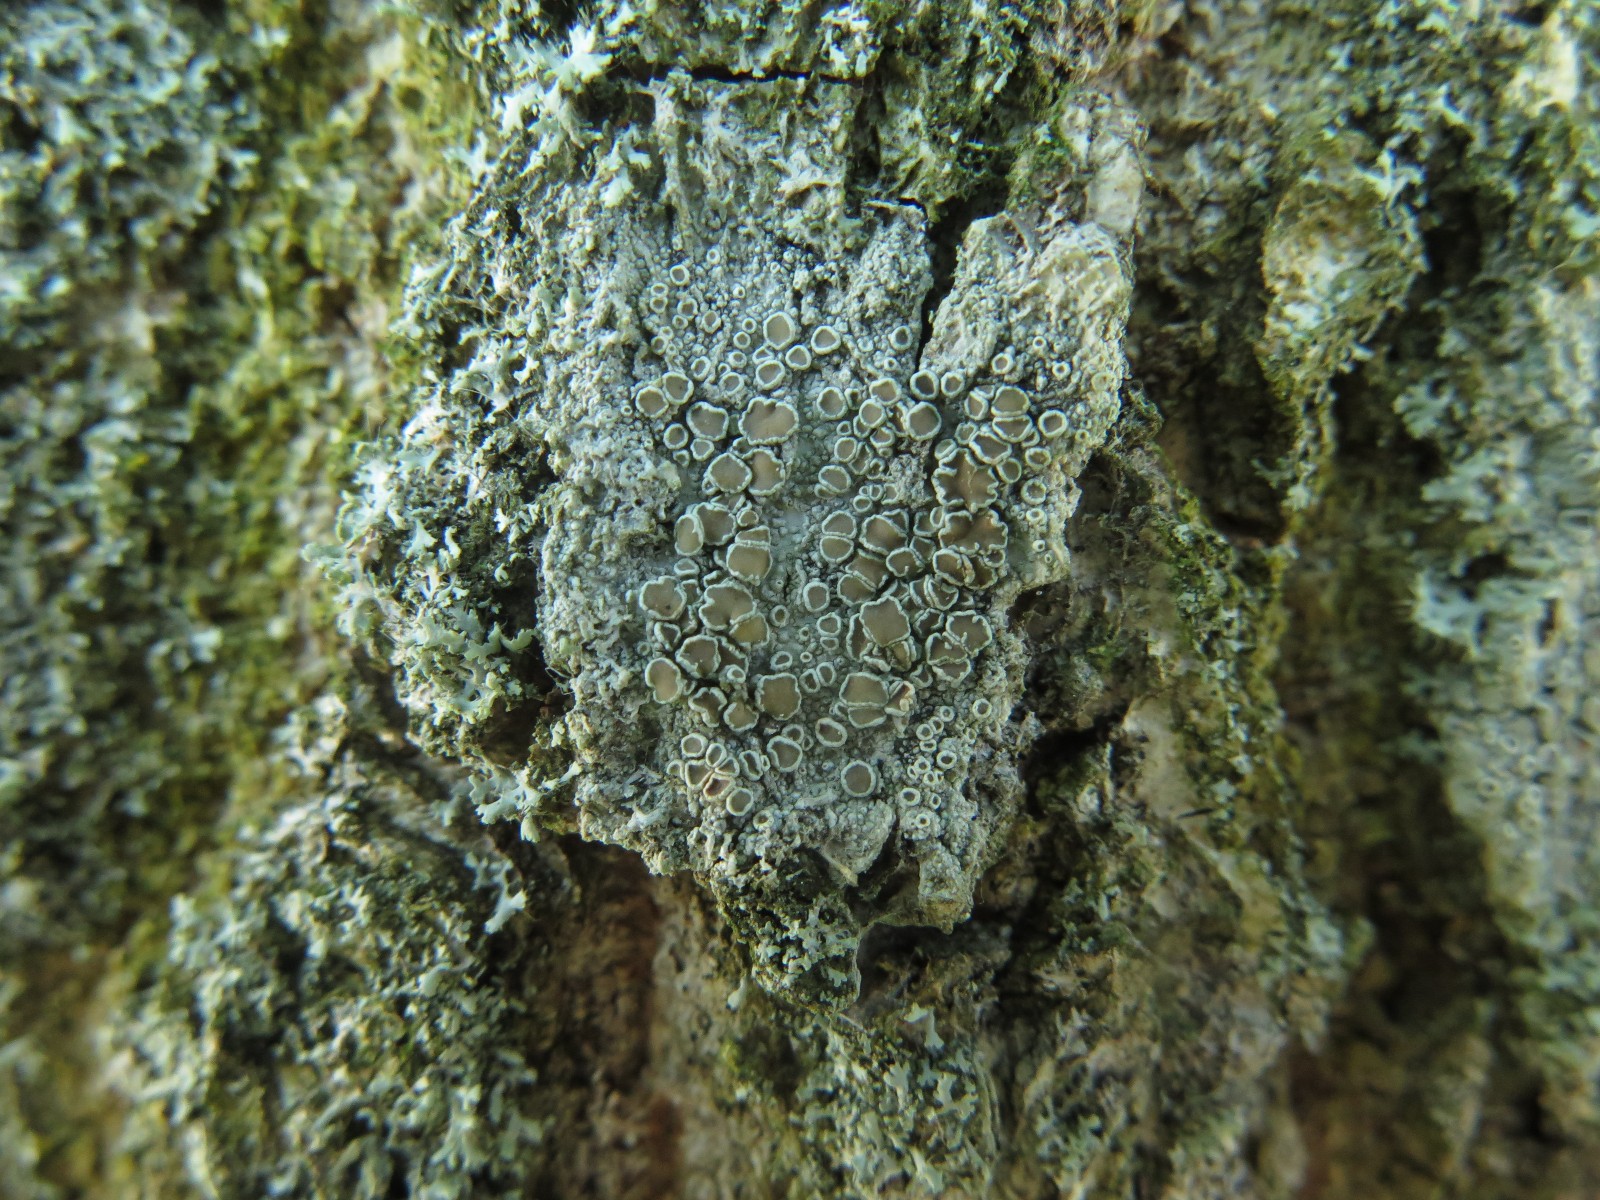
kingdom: Fungi
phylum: Ascomycota
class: Lecanoromycetes
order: Lecanorales
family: Lecanoraceae
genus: Lecanora
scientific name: Lecanora chlarotera
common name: brun kantskivelav
